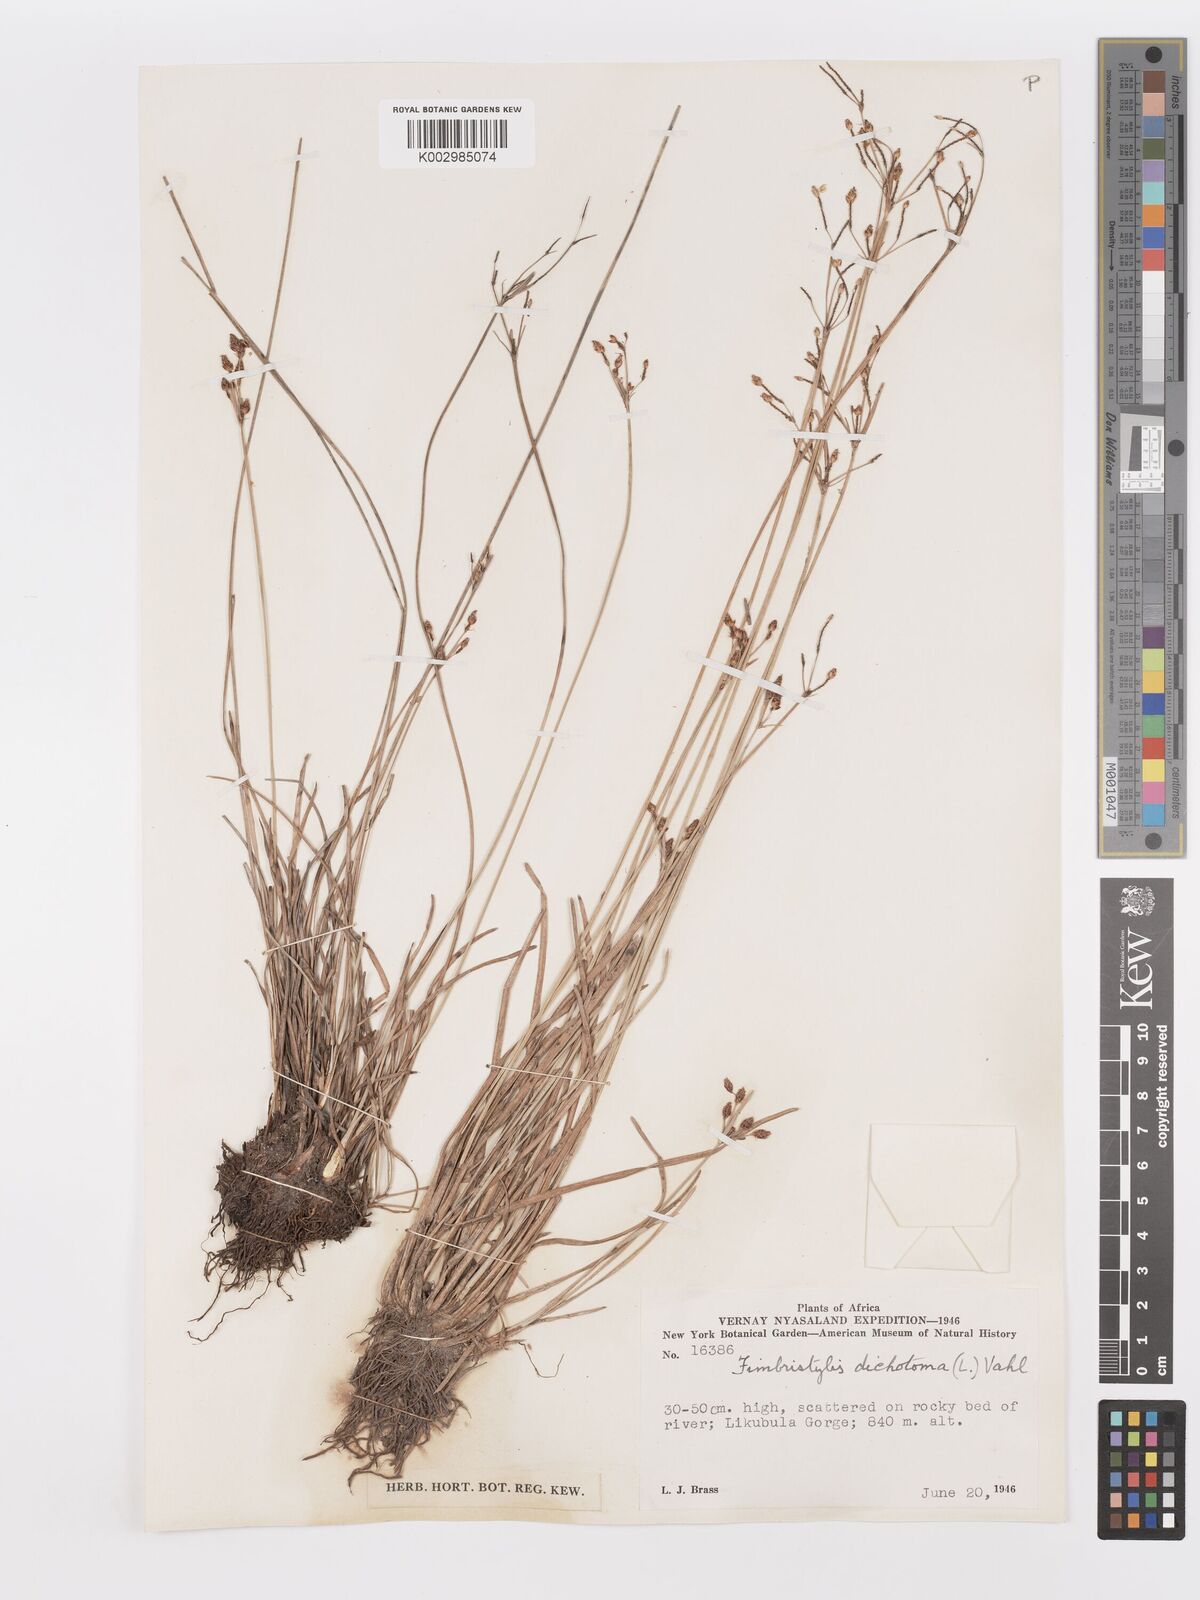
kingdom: Plantae
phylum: Tracheophyta
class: Liliopsida
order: Poales
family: Cyperaceae
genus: Fimbristylis
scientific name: Fimbristylis dichotoma
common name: Forked fimbry
